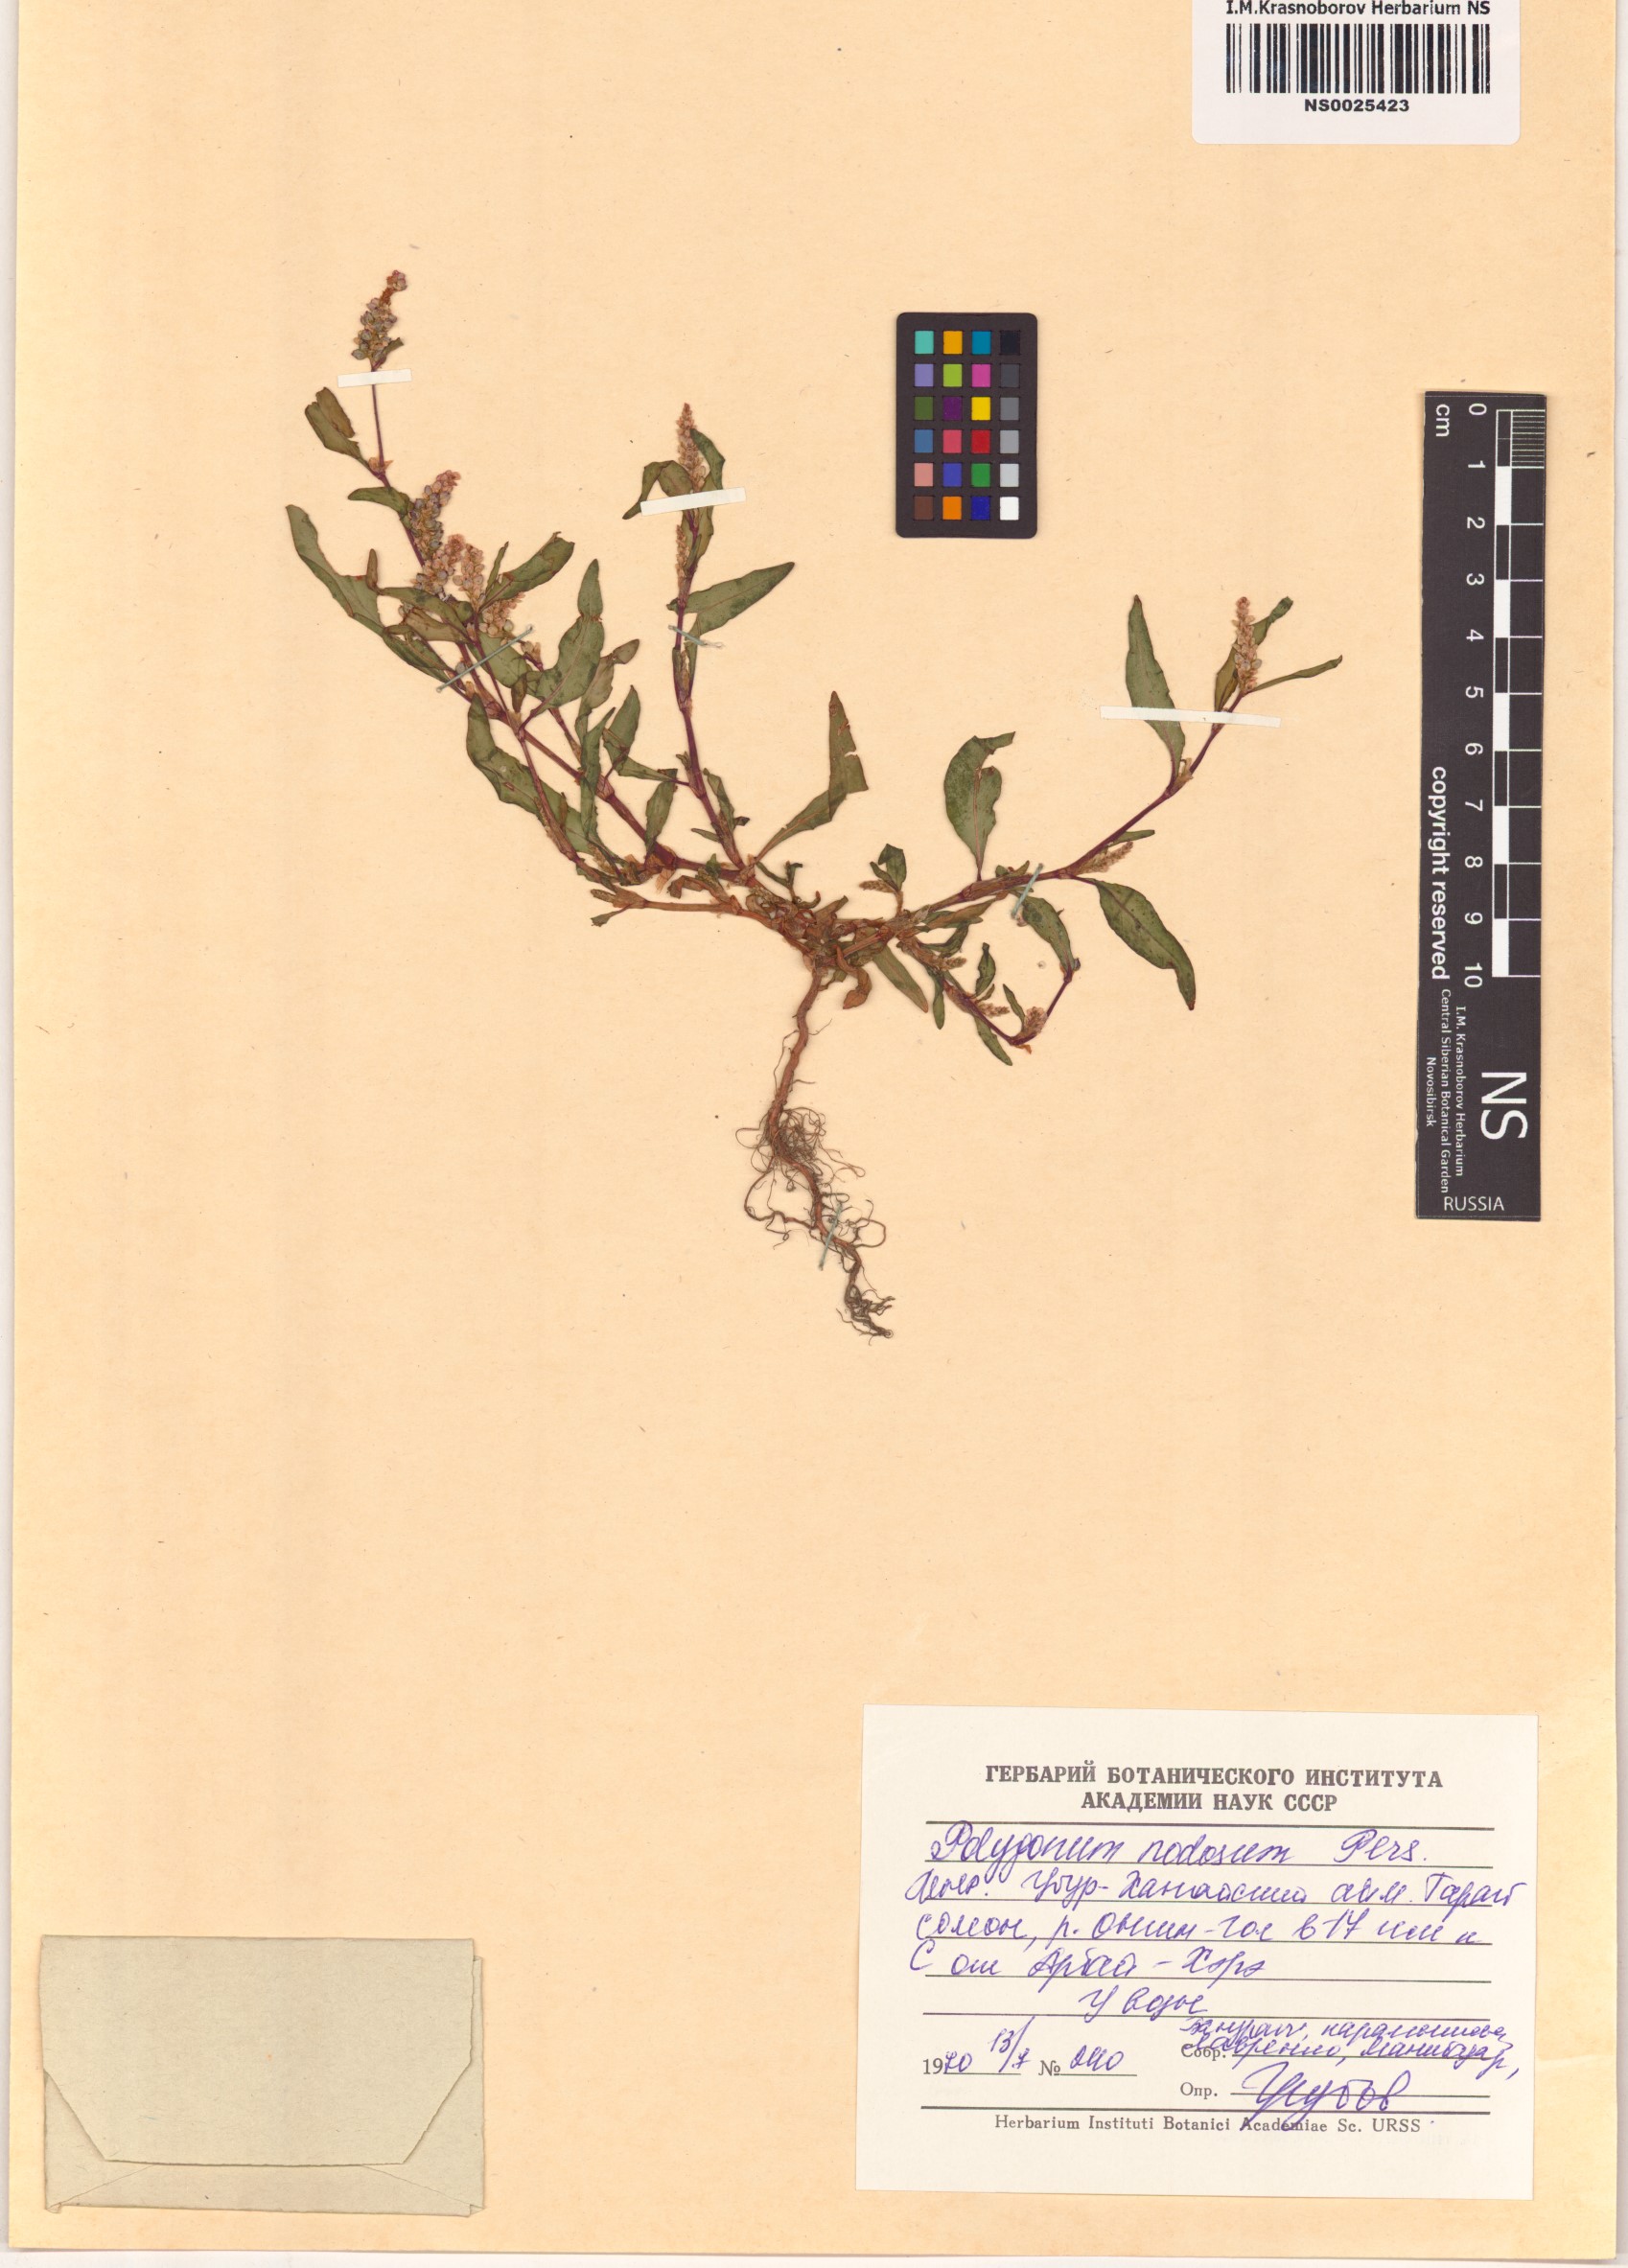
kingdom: Plantae
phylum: Tracheophyta
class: Magnoliopsida
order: Caryophyllales
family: Polygonaceae
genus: Persicaria
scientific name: Persicaria lapathifolia
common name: Curlytop knotweed
